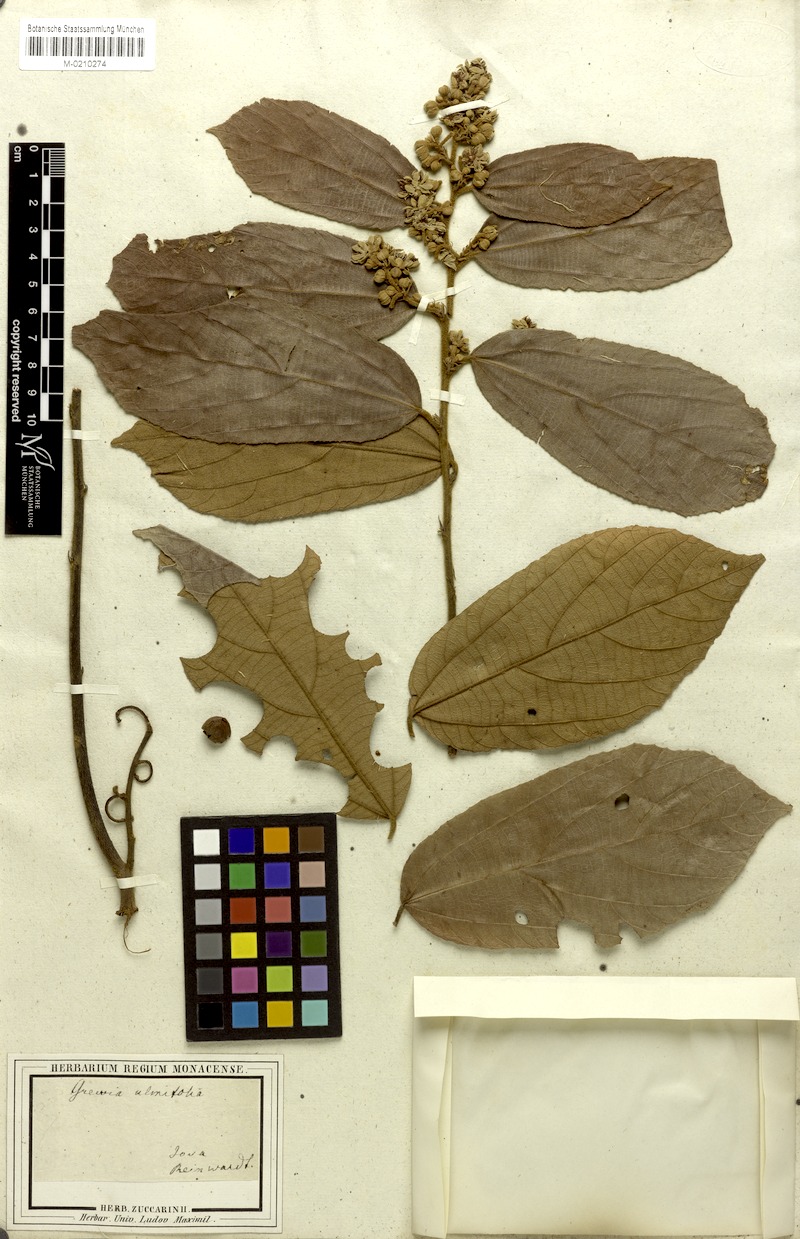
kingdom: Plantae
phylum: Tracheophyta
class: Magnoliopsida
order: Malvales
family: Malvaceae
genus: Microcos
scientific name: Microcos tomentosa
